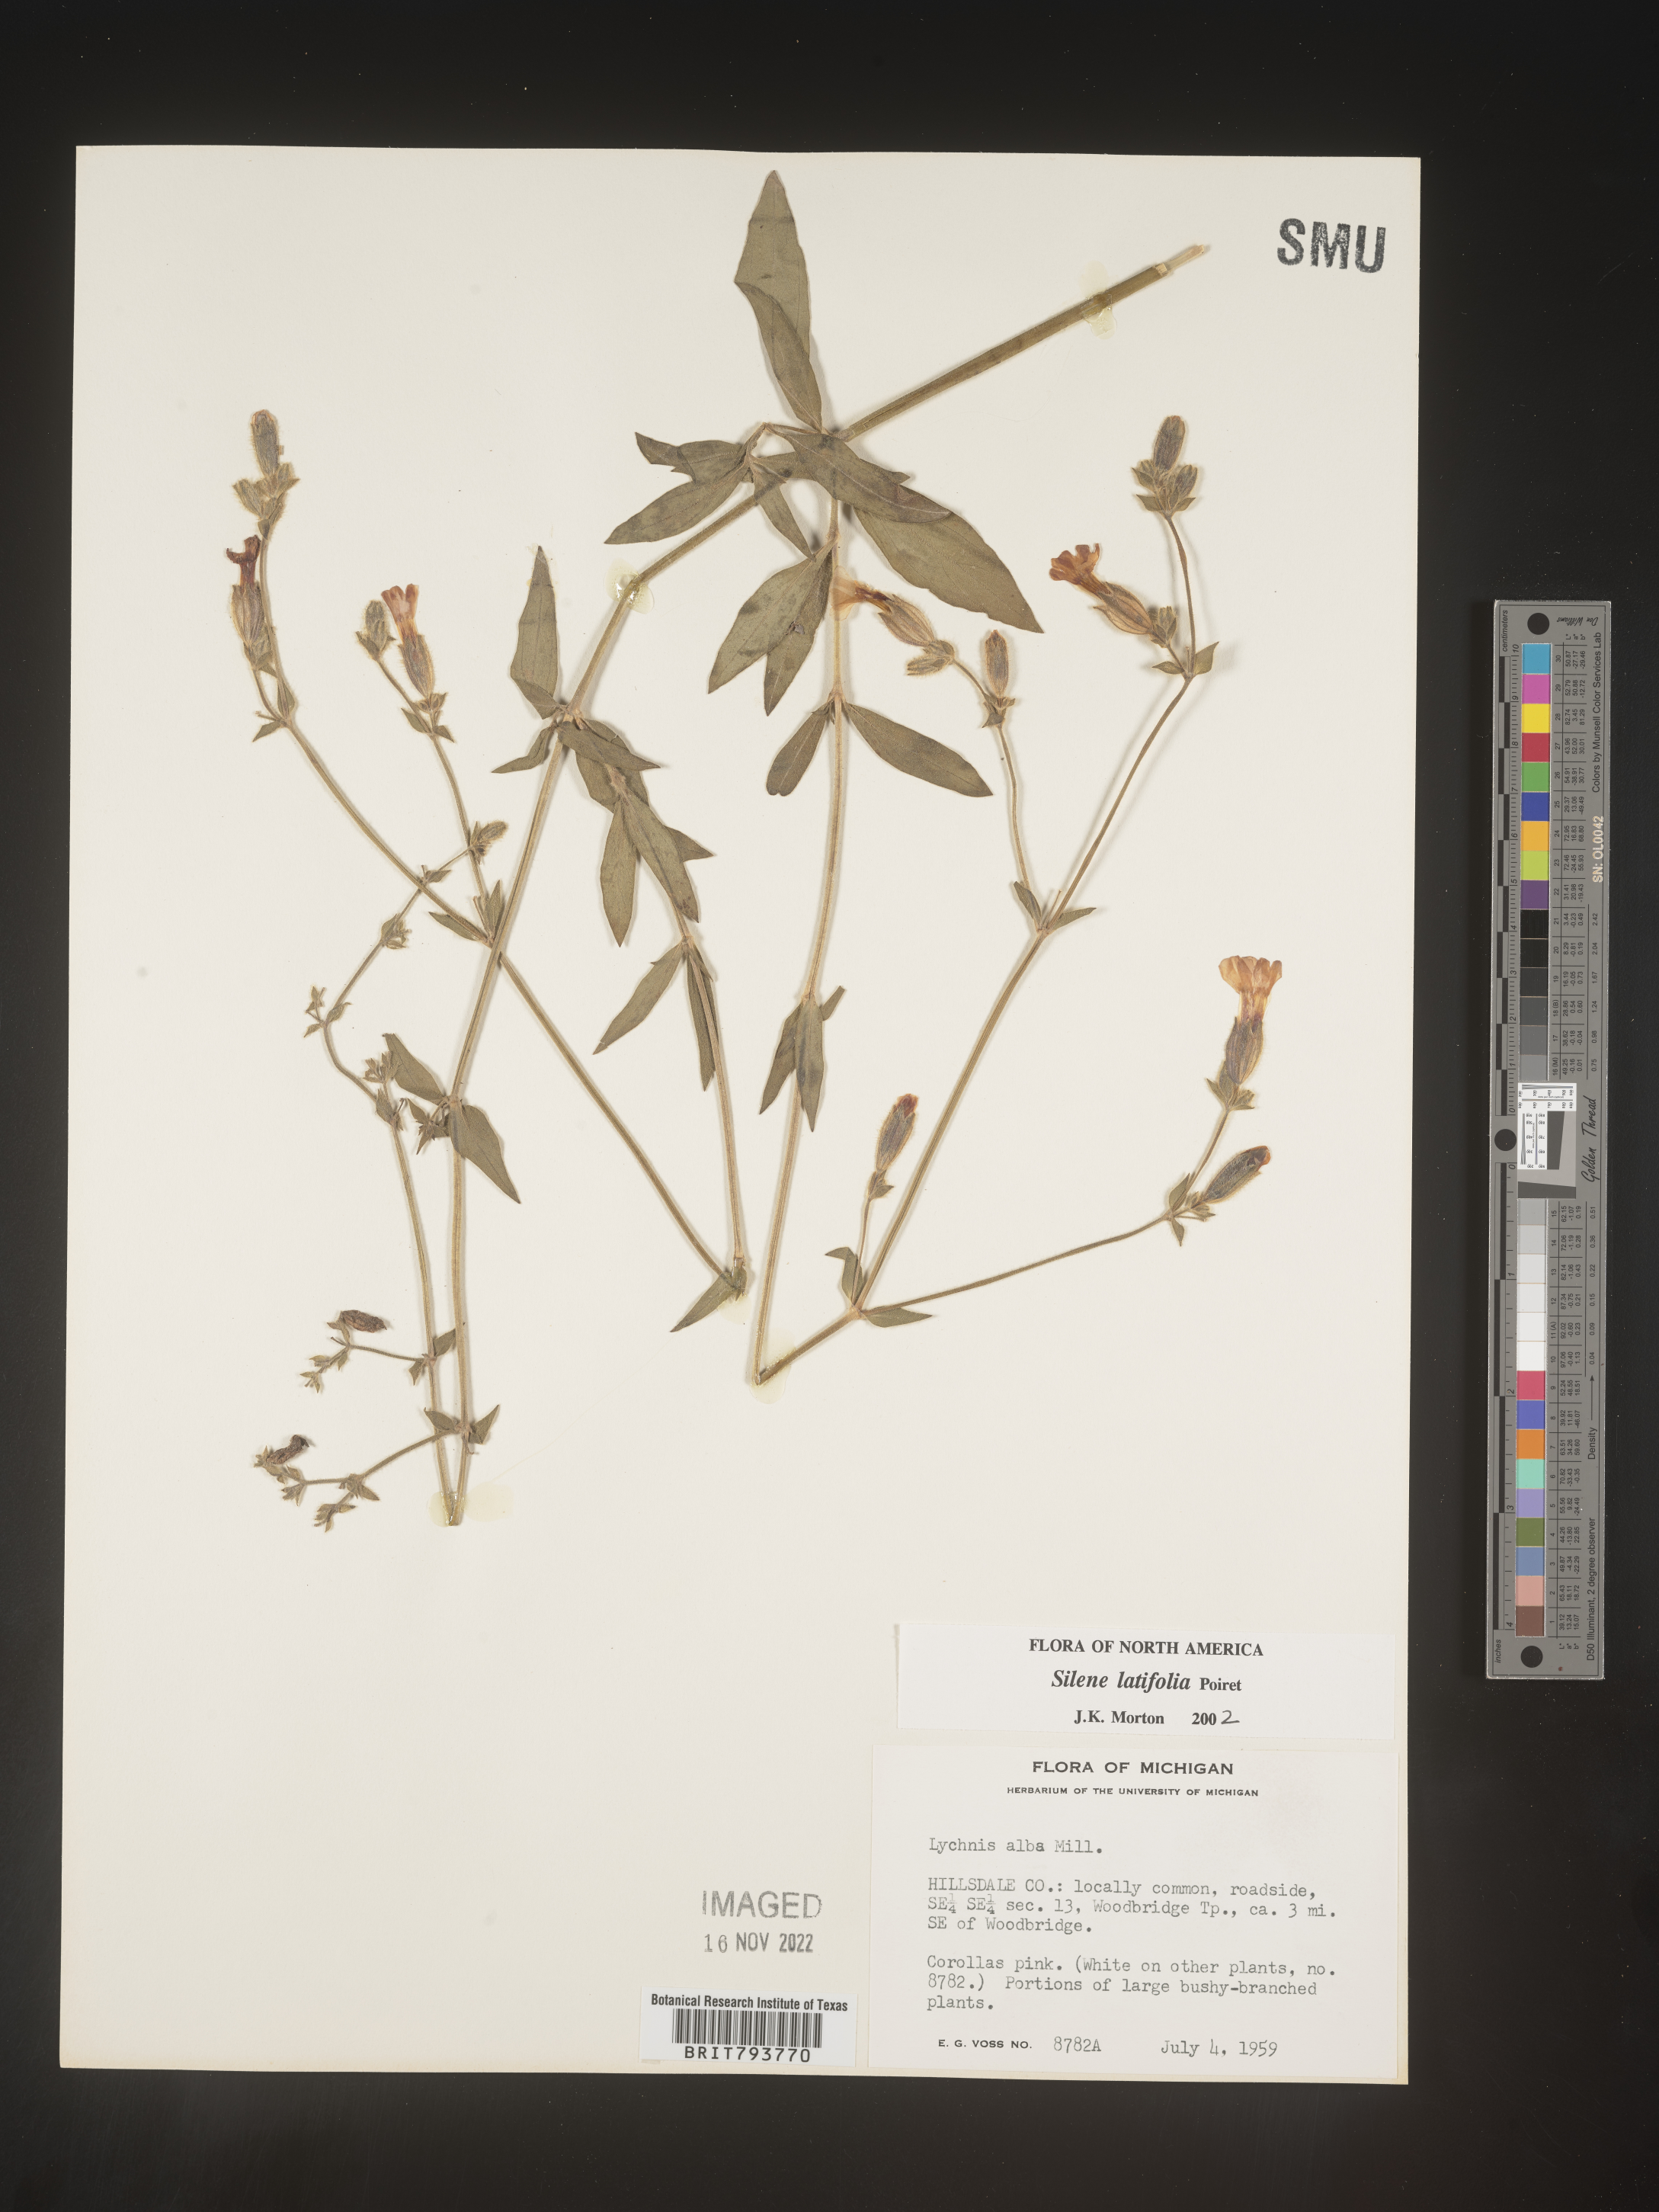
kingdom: Plantae
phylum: Tracheophyta
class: Magnoliopsida
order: Caryophyllales
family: Caryophyllaceae
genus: Silene
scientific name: Silene latifolia
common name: White campion
